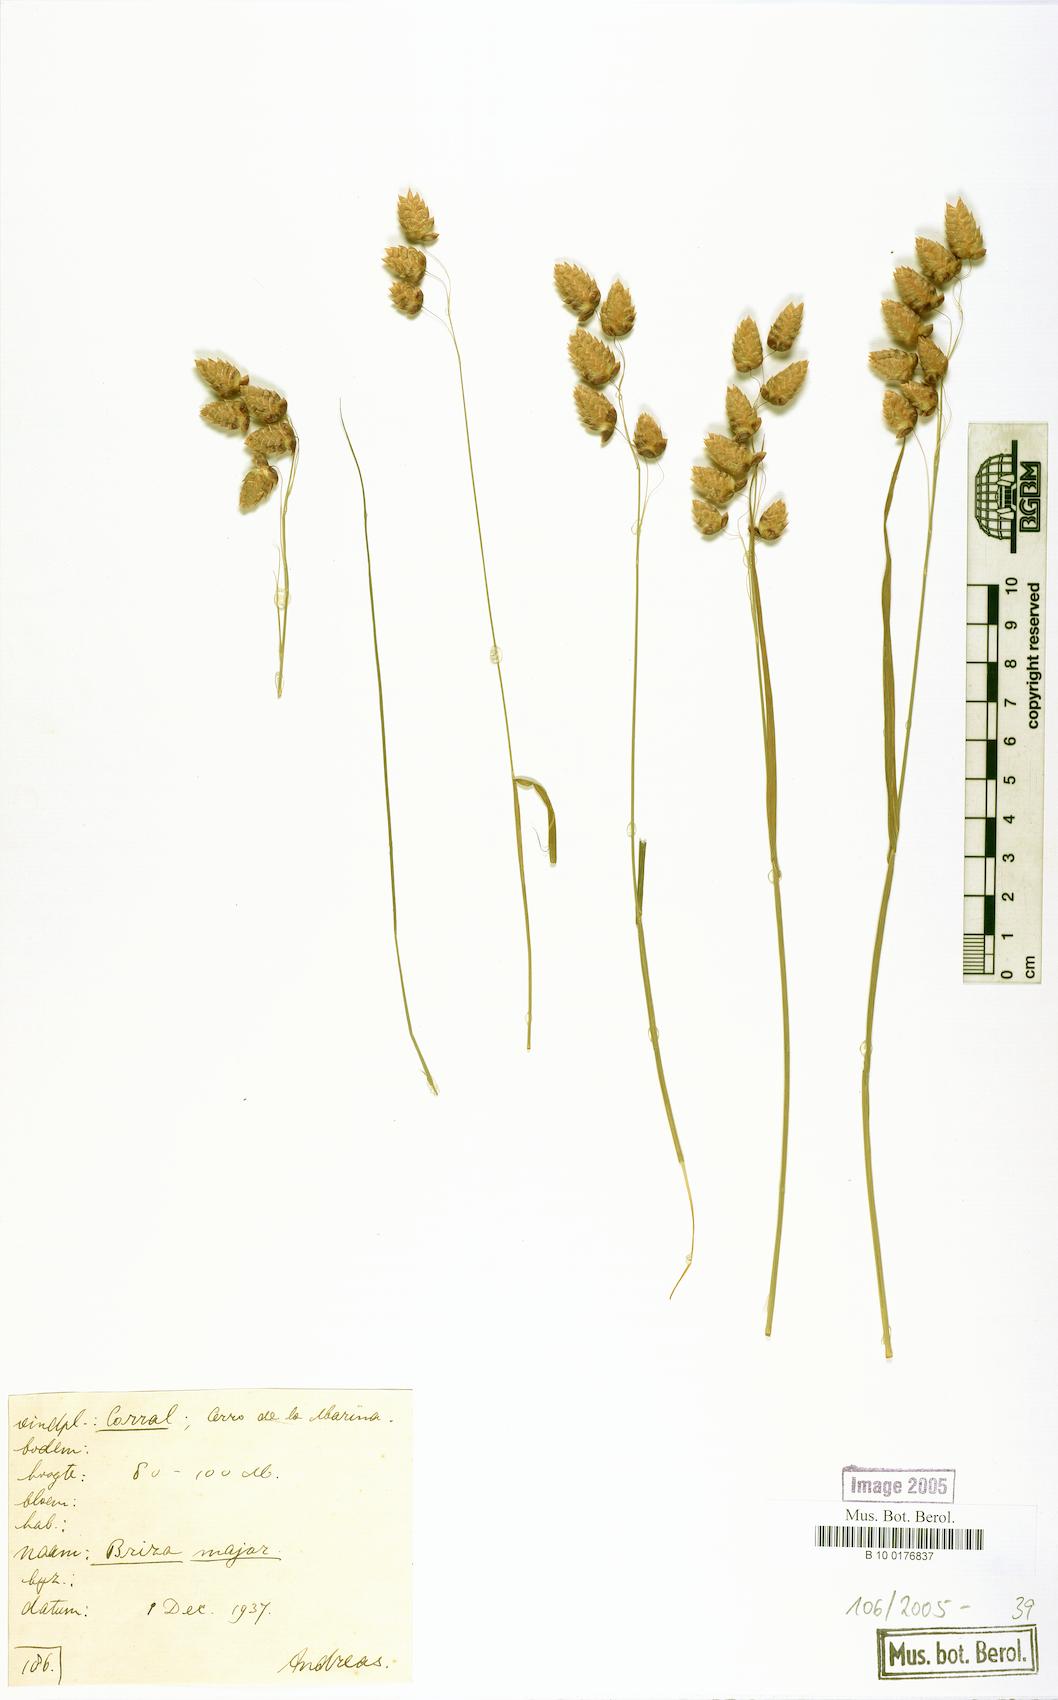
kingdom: Plantae
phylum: Tracheophyta
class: Liliopsida
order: Poales
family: Poaceae
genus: Eragrostis
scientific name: Eragrostis cilianensis
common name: Stinkgrass
